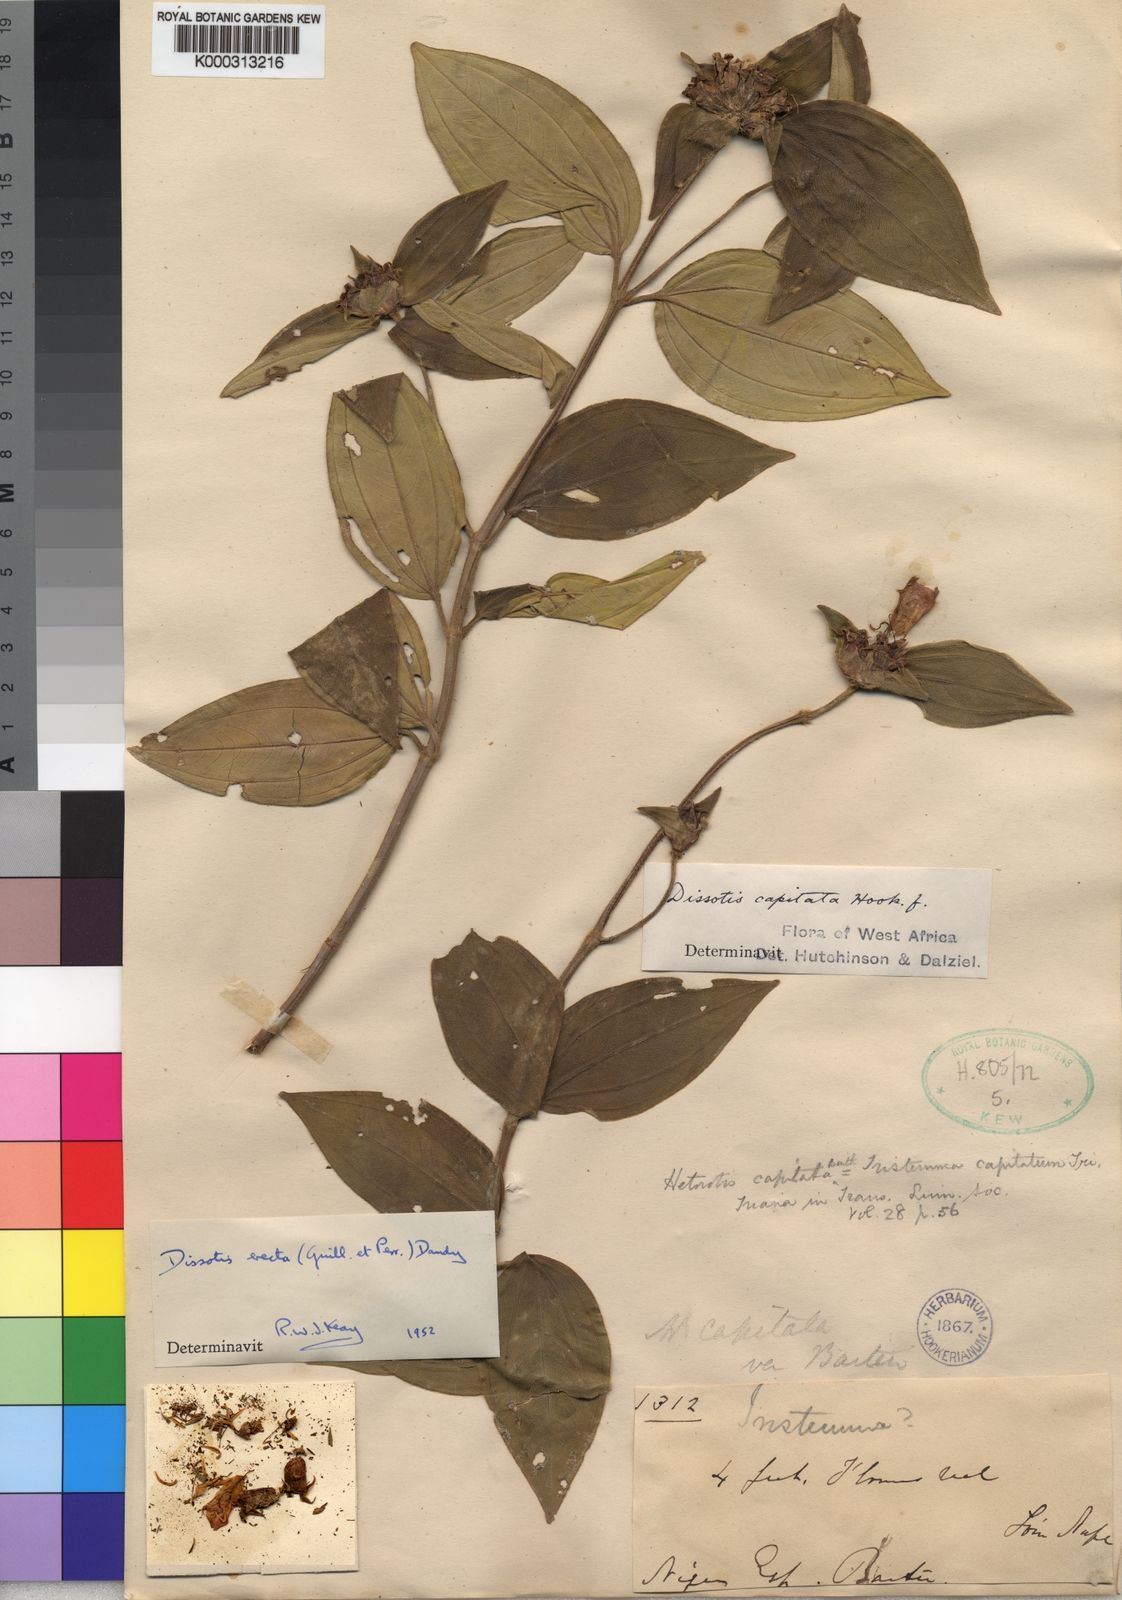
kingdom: Plantae
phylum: Tracheophyta
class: Magnoliopsida
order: Myrtales
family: Melastomataceae
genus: Melastomastrum
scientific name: Melastomastrum capitatum
